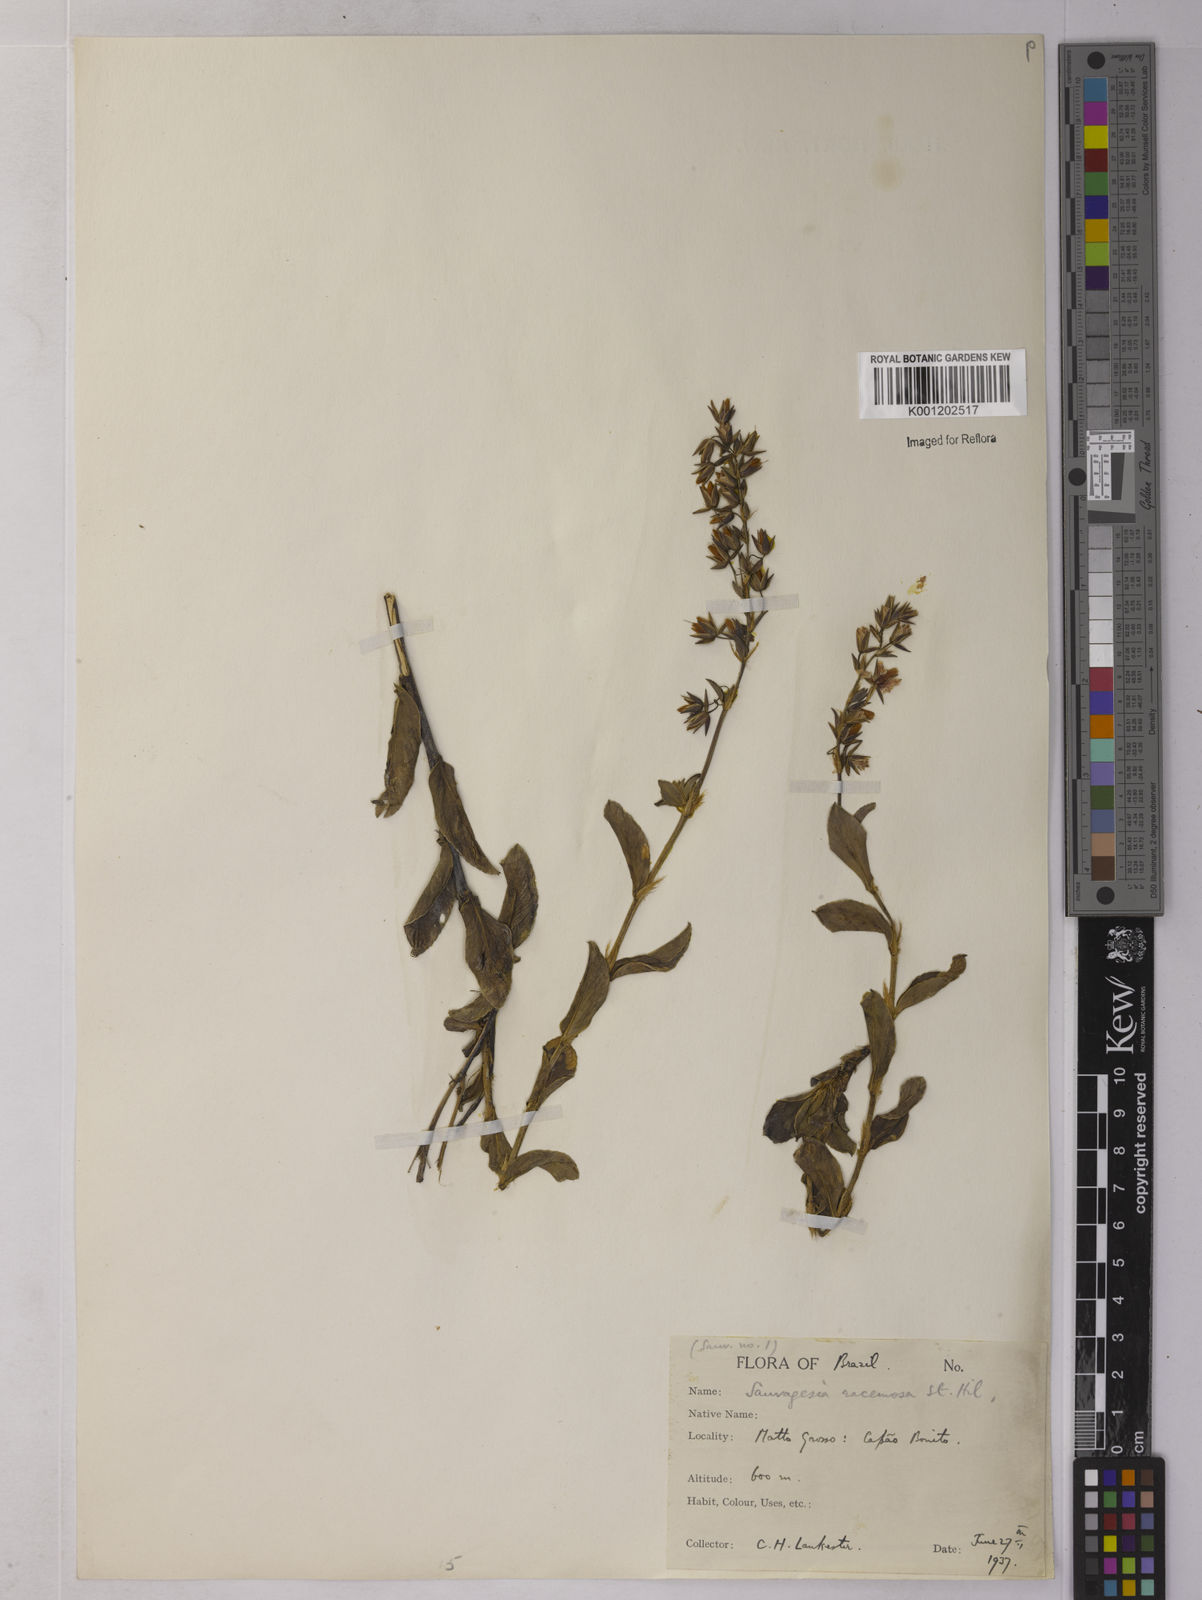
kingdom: Plantae
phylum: Tracheophyta
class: Magnoliopsida
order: Malpighiales
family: Ochnaceae
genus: Sauvagesia
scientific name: Sauvagesia racemosa
